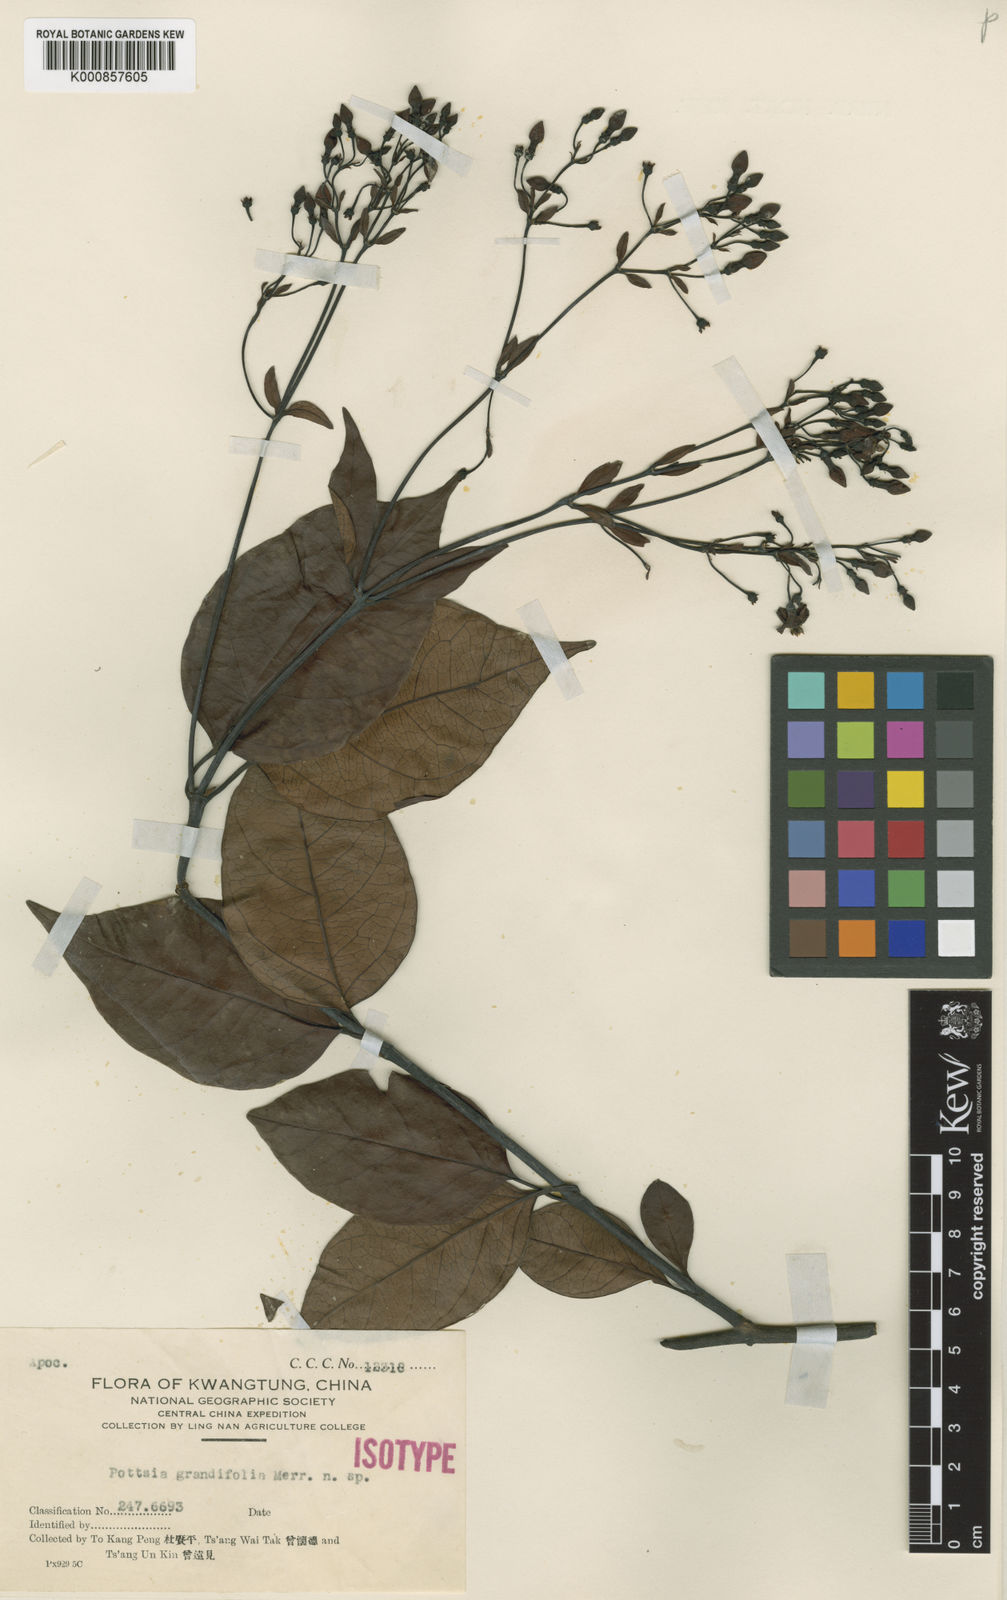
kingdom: Plantae
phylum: Tracheophyta
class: Magnoliopsida
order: Gentianales
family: Apocynaceae
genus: Pottsia
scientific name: Pottsia
